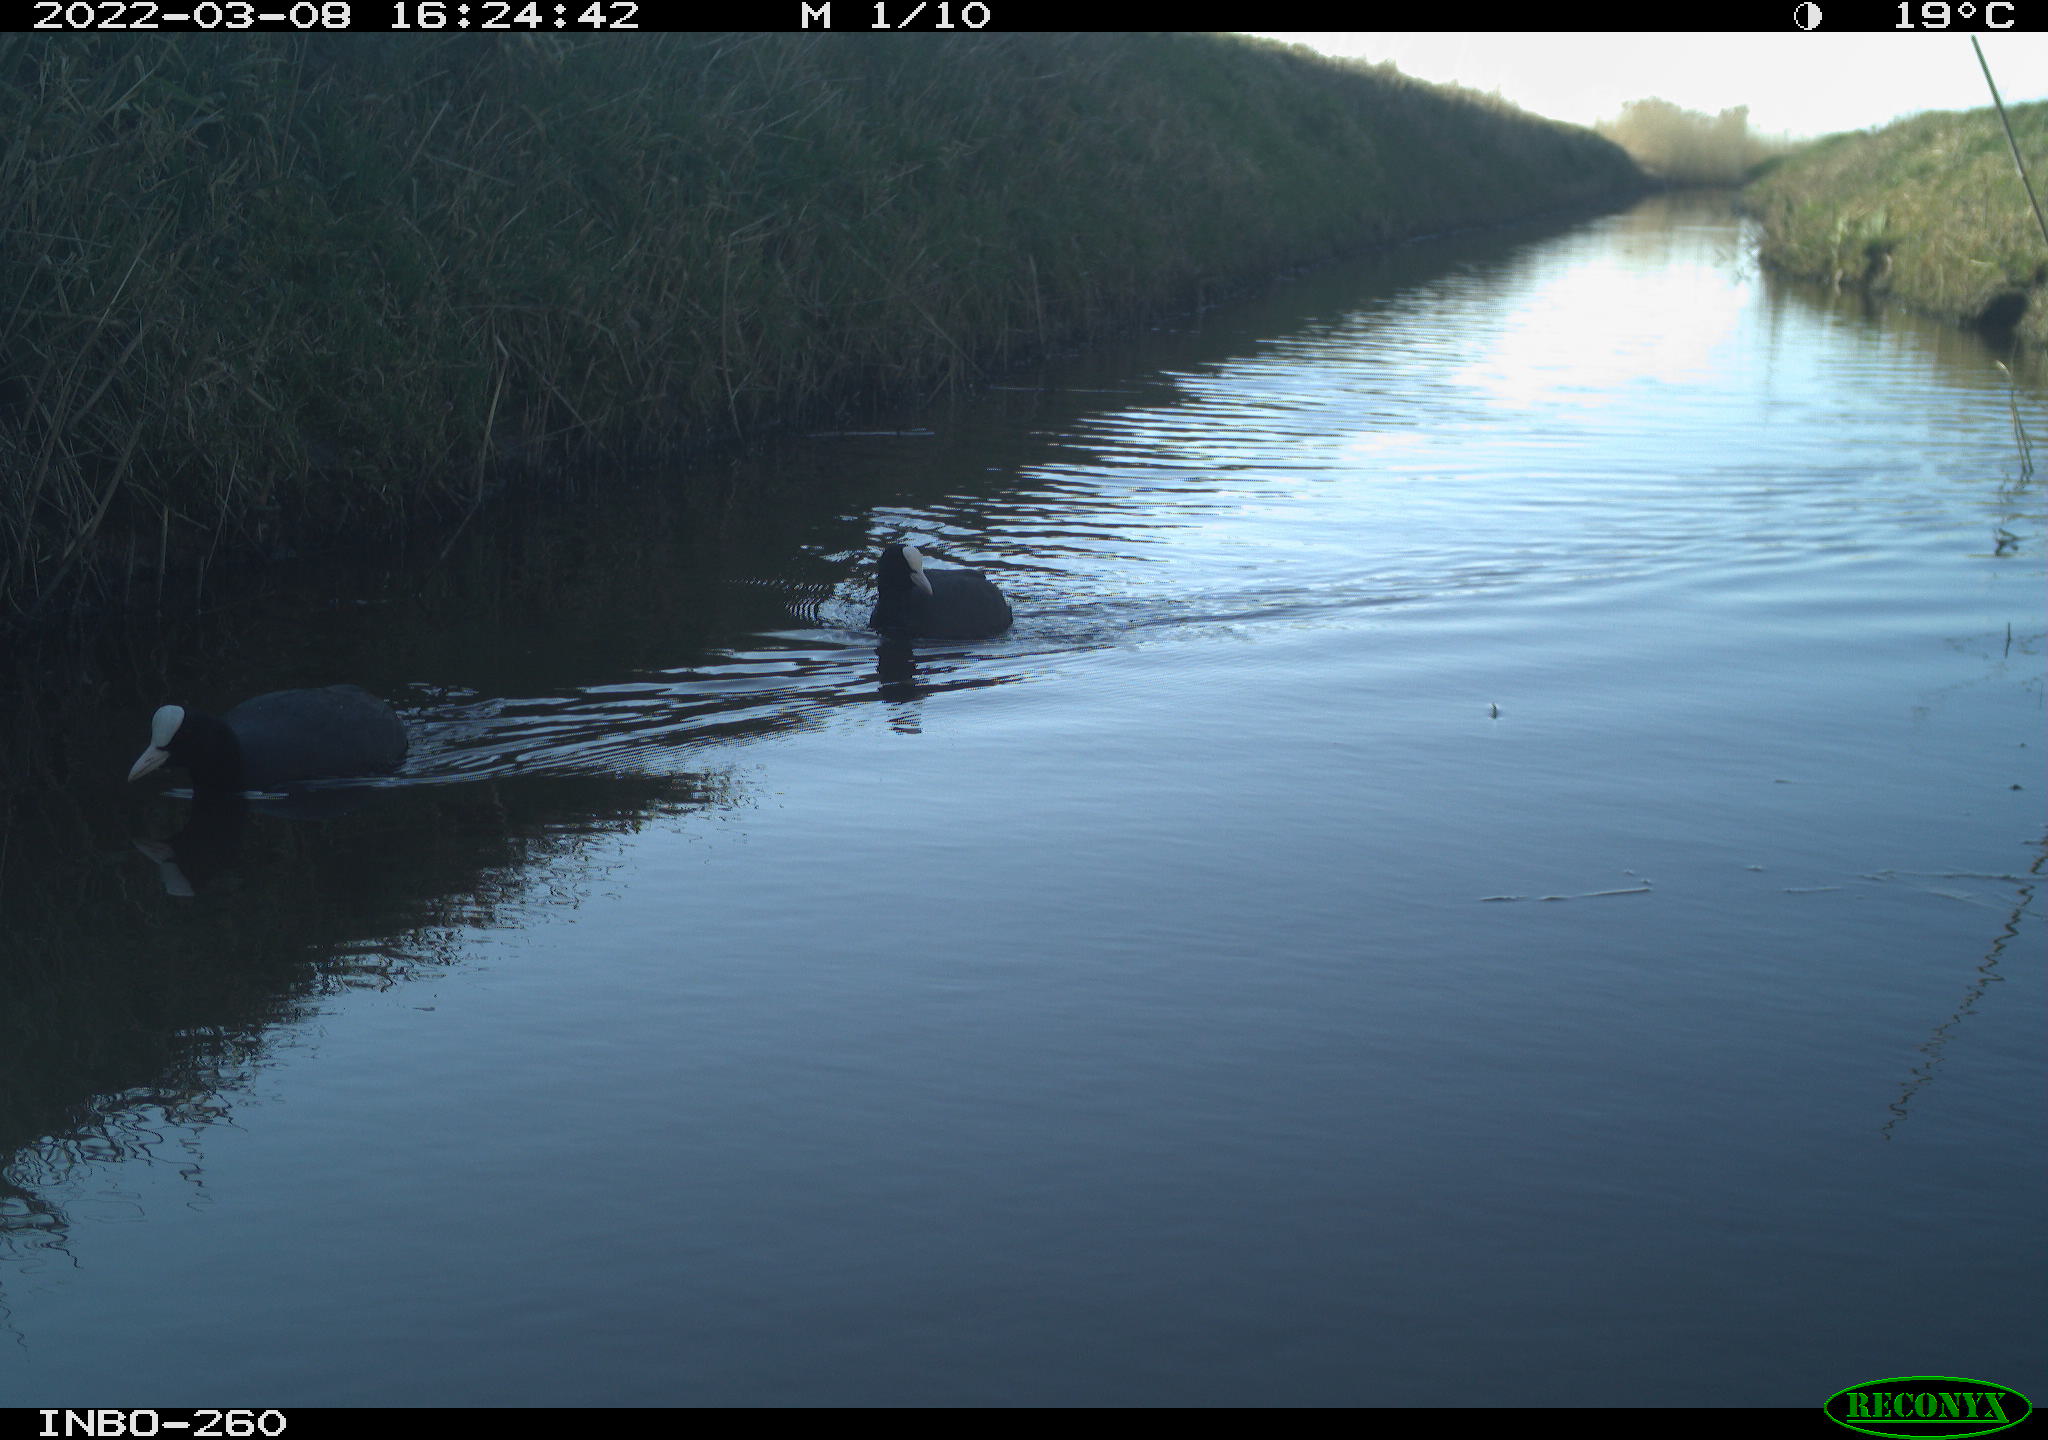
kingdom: Animalia
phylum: Chordata
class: Aves
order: Gruiformes
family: Rallidae
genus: Fulica
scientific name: Fulica atra
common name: Eurasian coot
